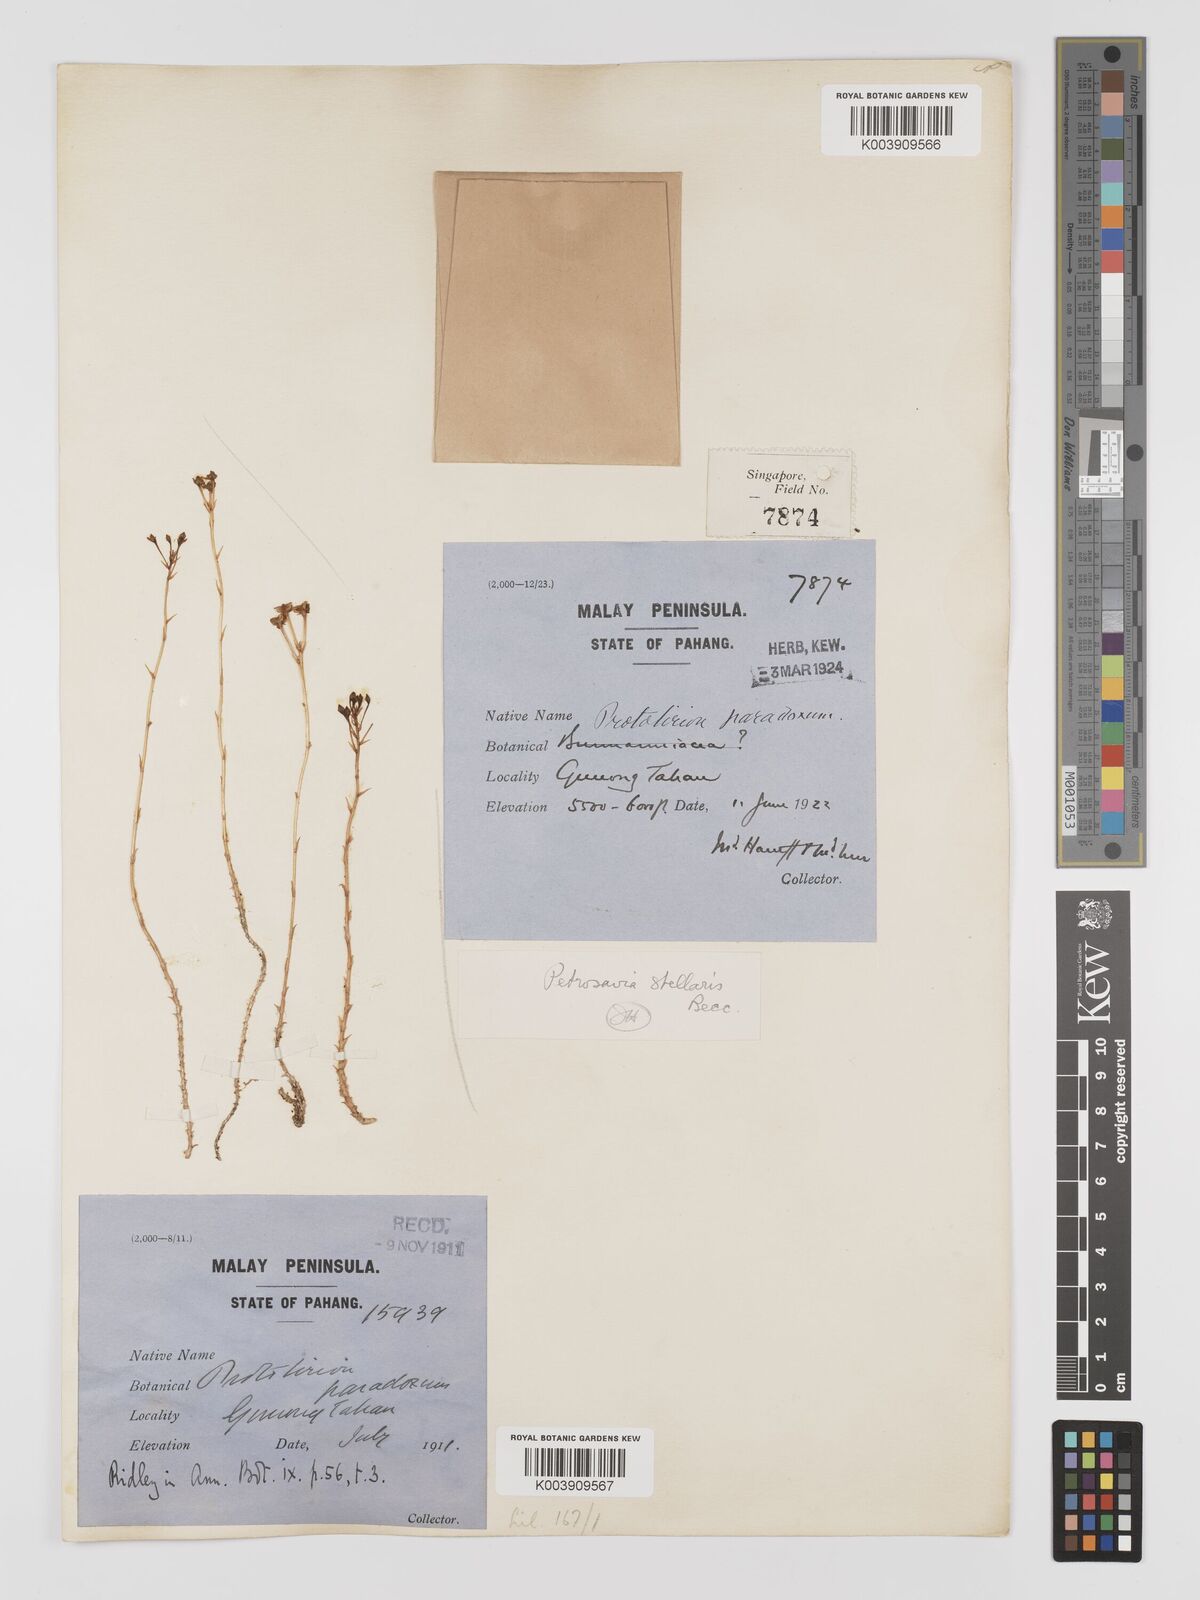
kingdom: Plantae
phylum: Tracheophyta
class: Liliopsida
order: Petrosaviales
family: Petrosaviaceae
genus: Petrosavia
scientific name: Petrosavia stellaris
